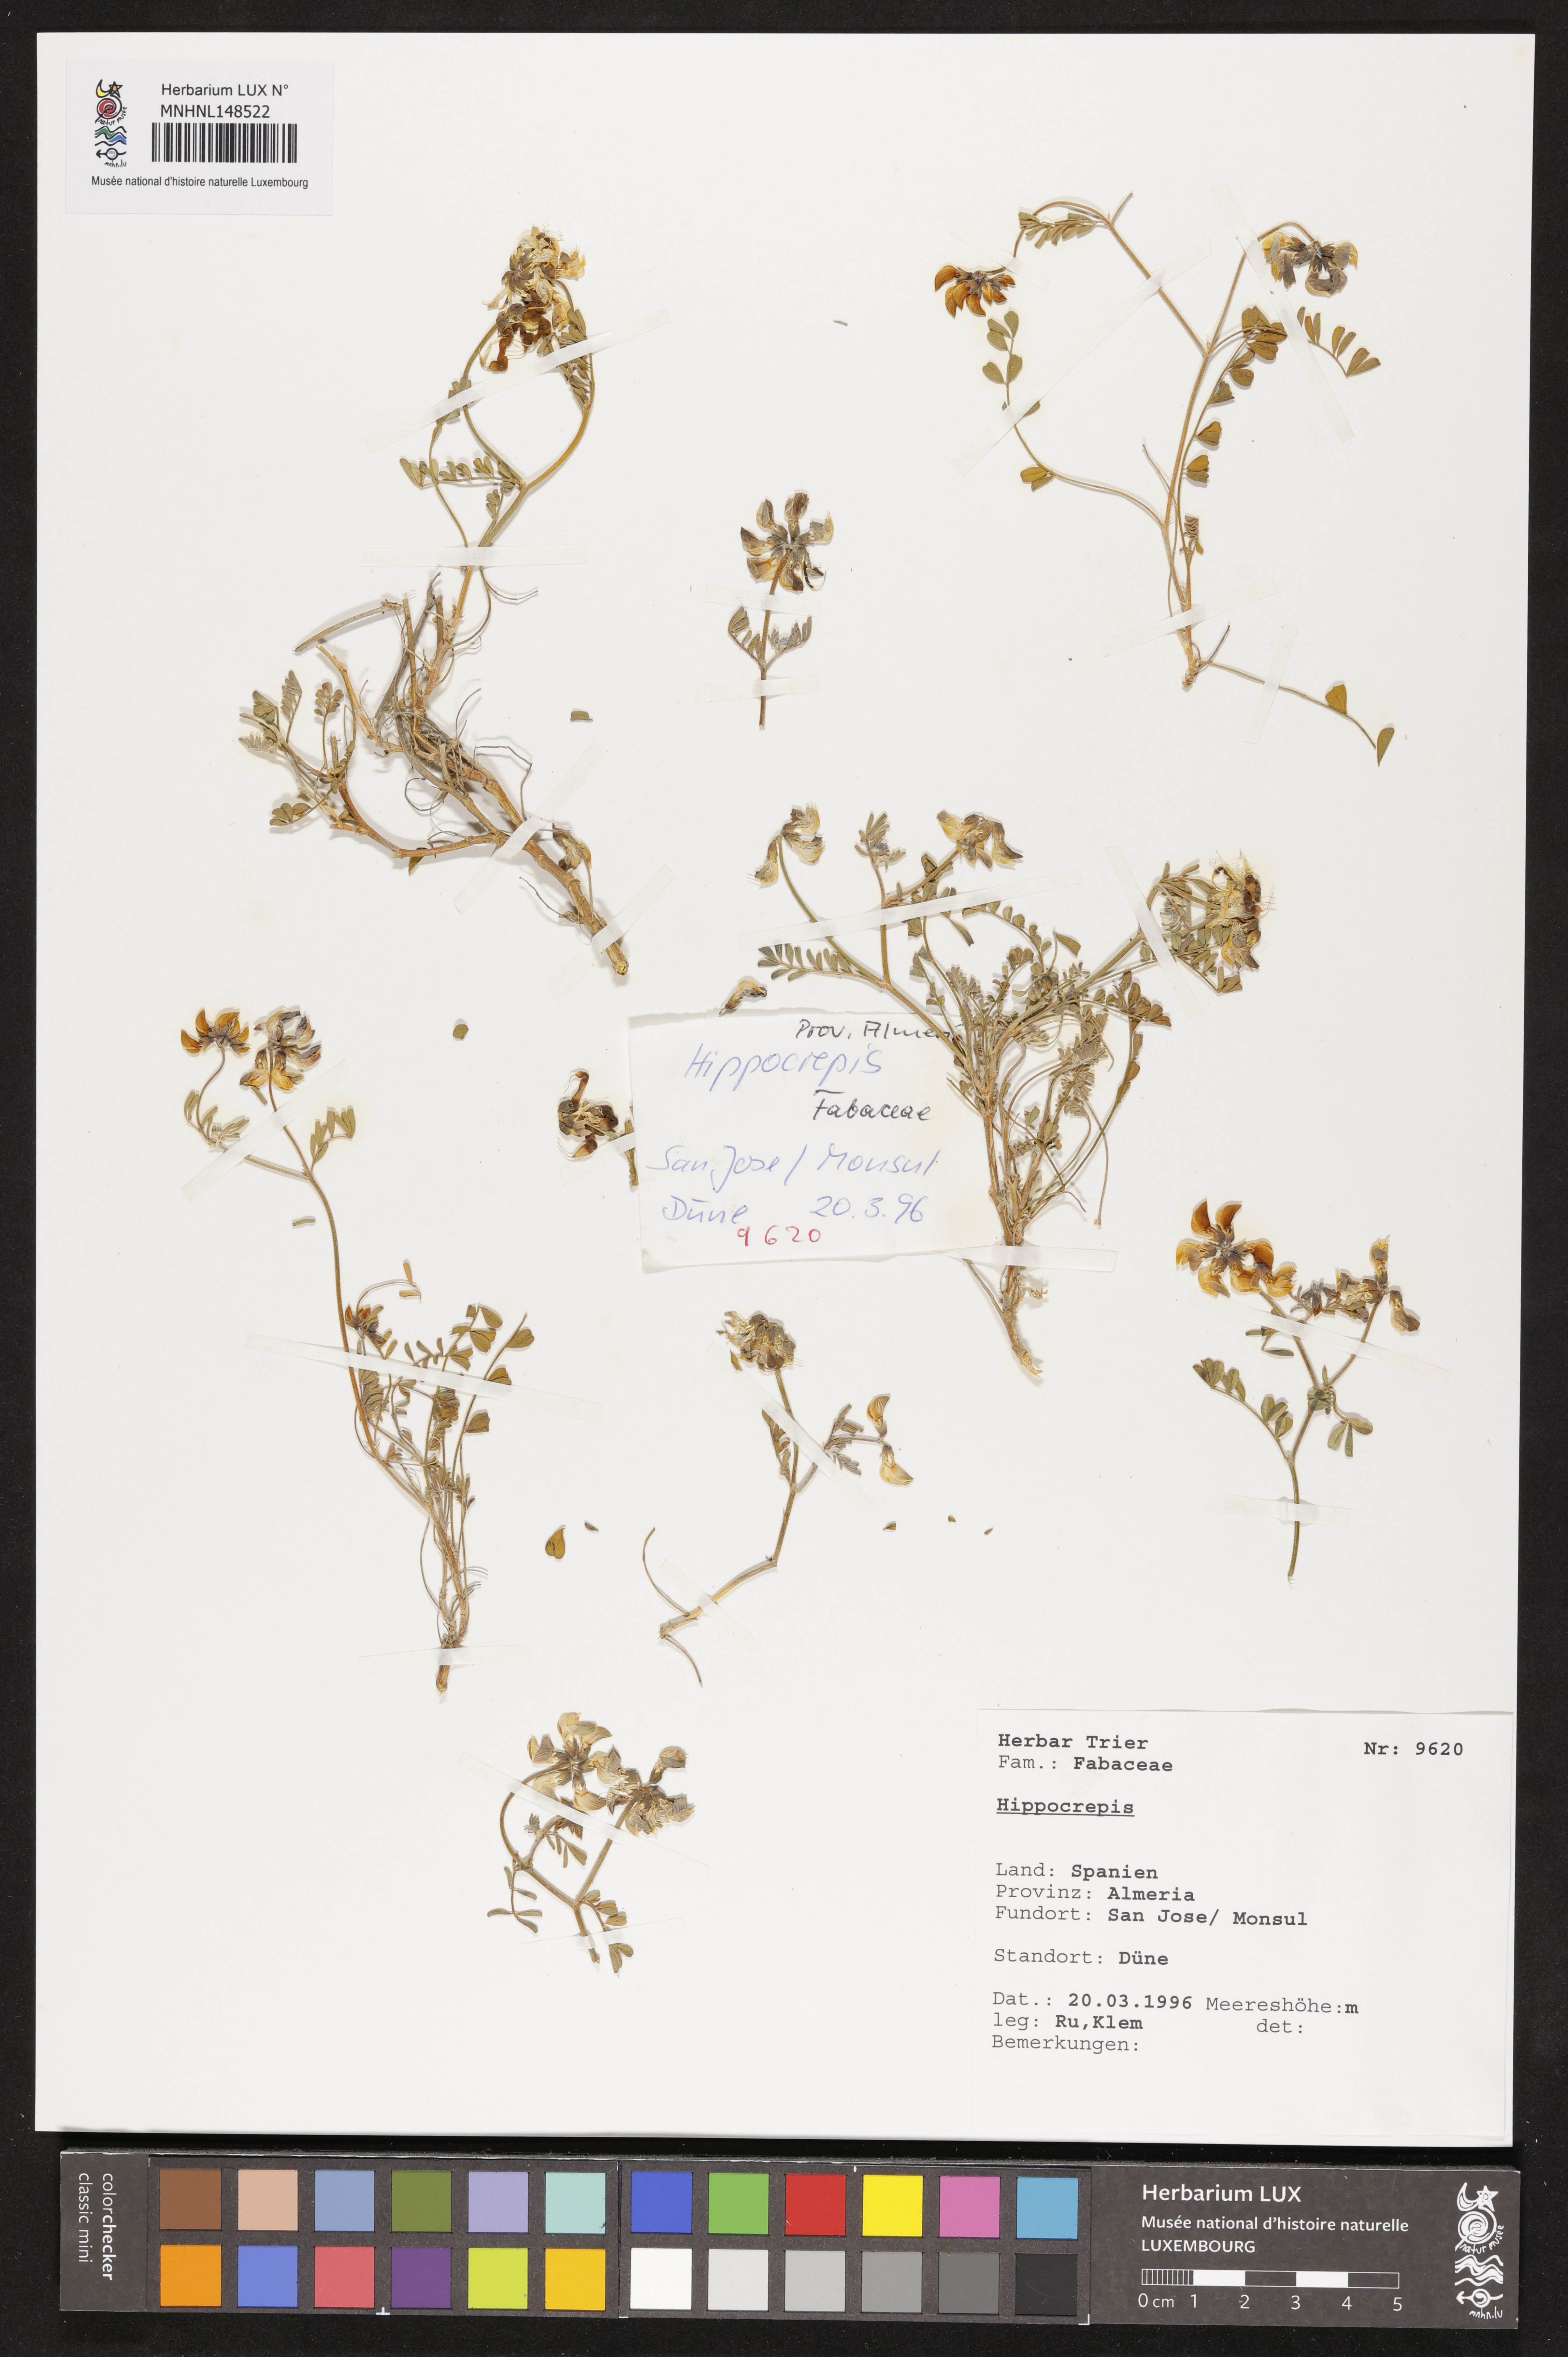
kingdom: Plantae
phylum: Tracheophyta
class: Magnoliopsida
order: Fabales
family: Fabaceae
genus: Hippocrepis
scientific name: Hippocrepis
